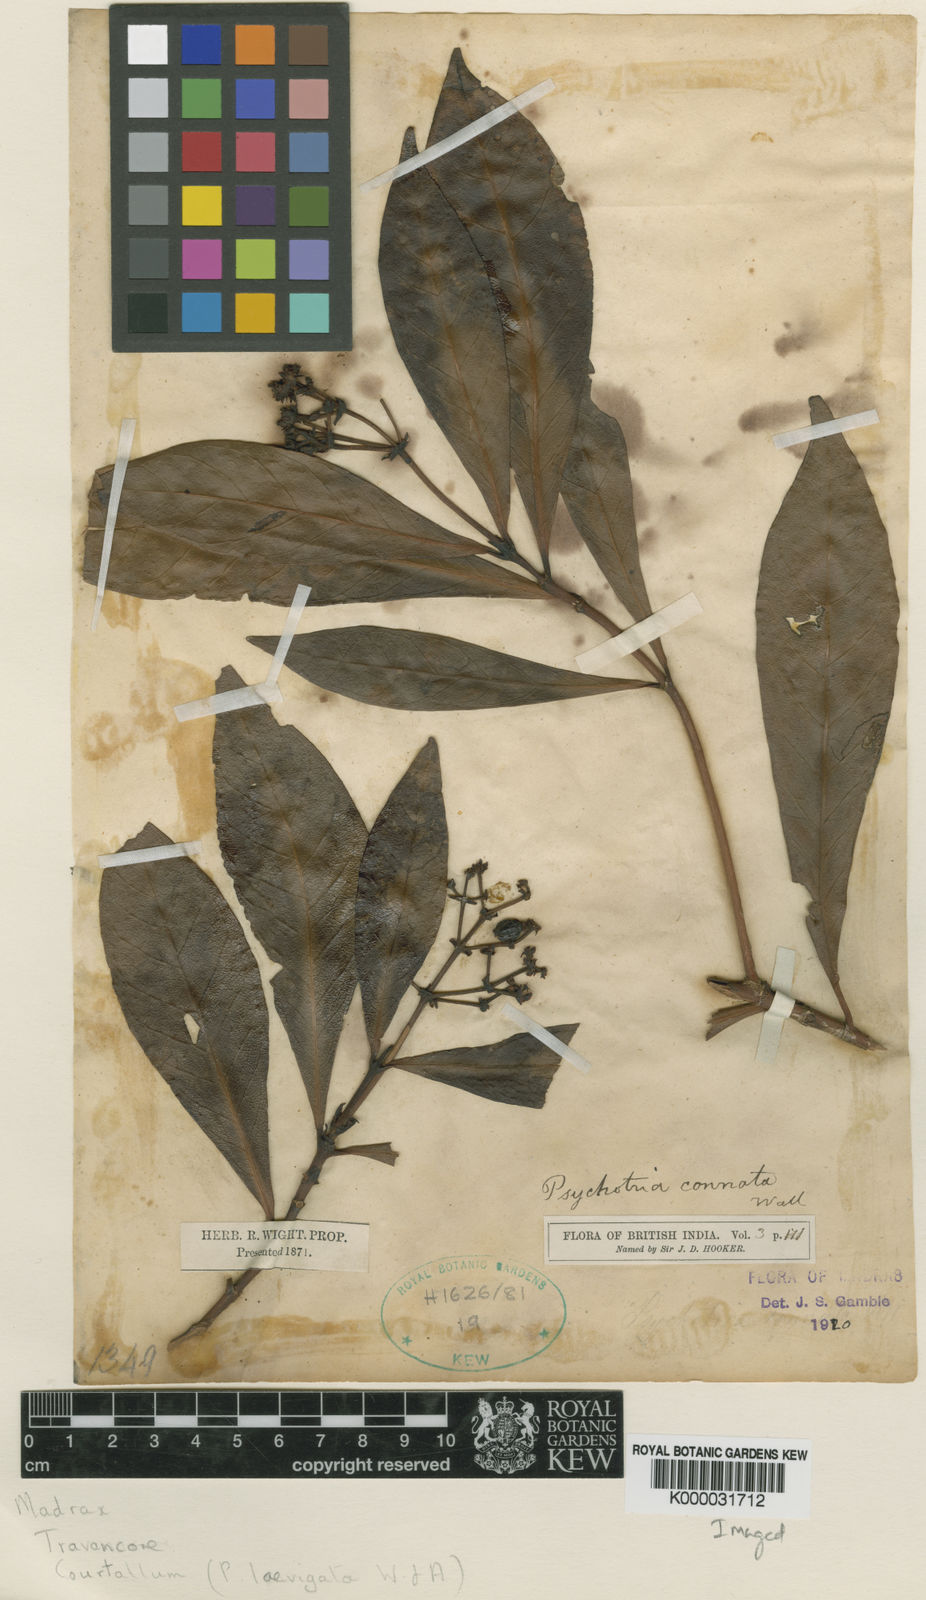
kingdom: Plantae
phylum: Tracheophyta
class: Magnoliopsida
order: Gentianales
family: Rubiaceae
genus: Psychotria
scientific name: Psychotria connata
